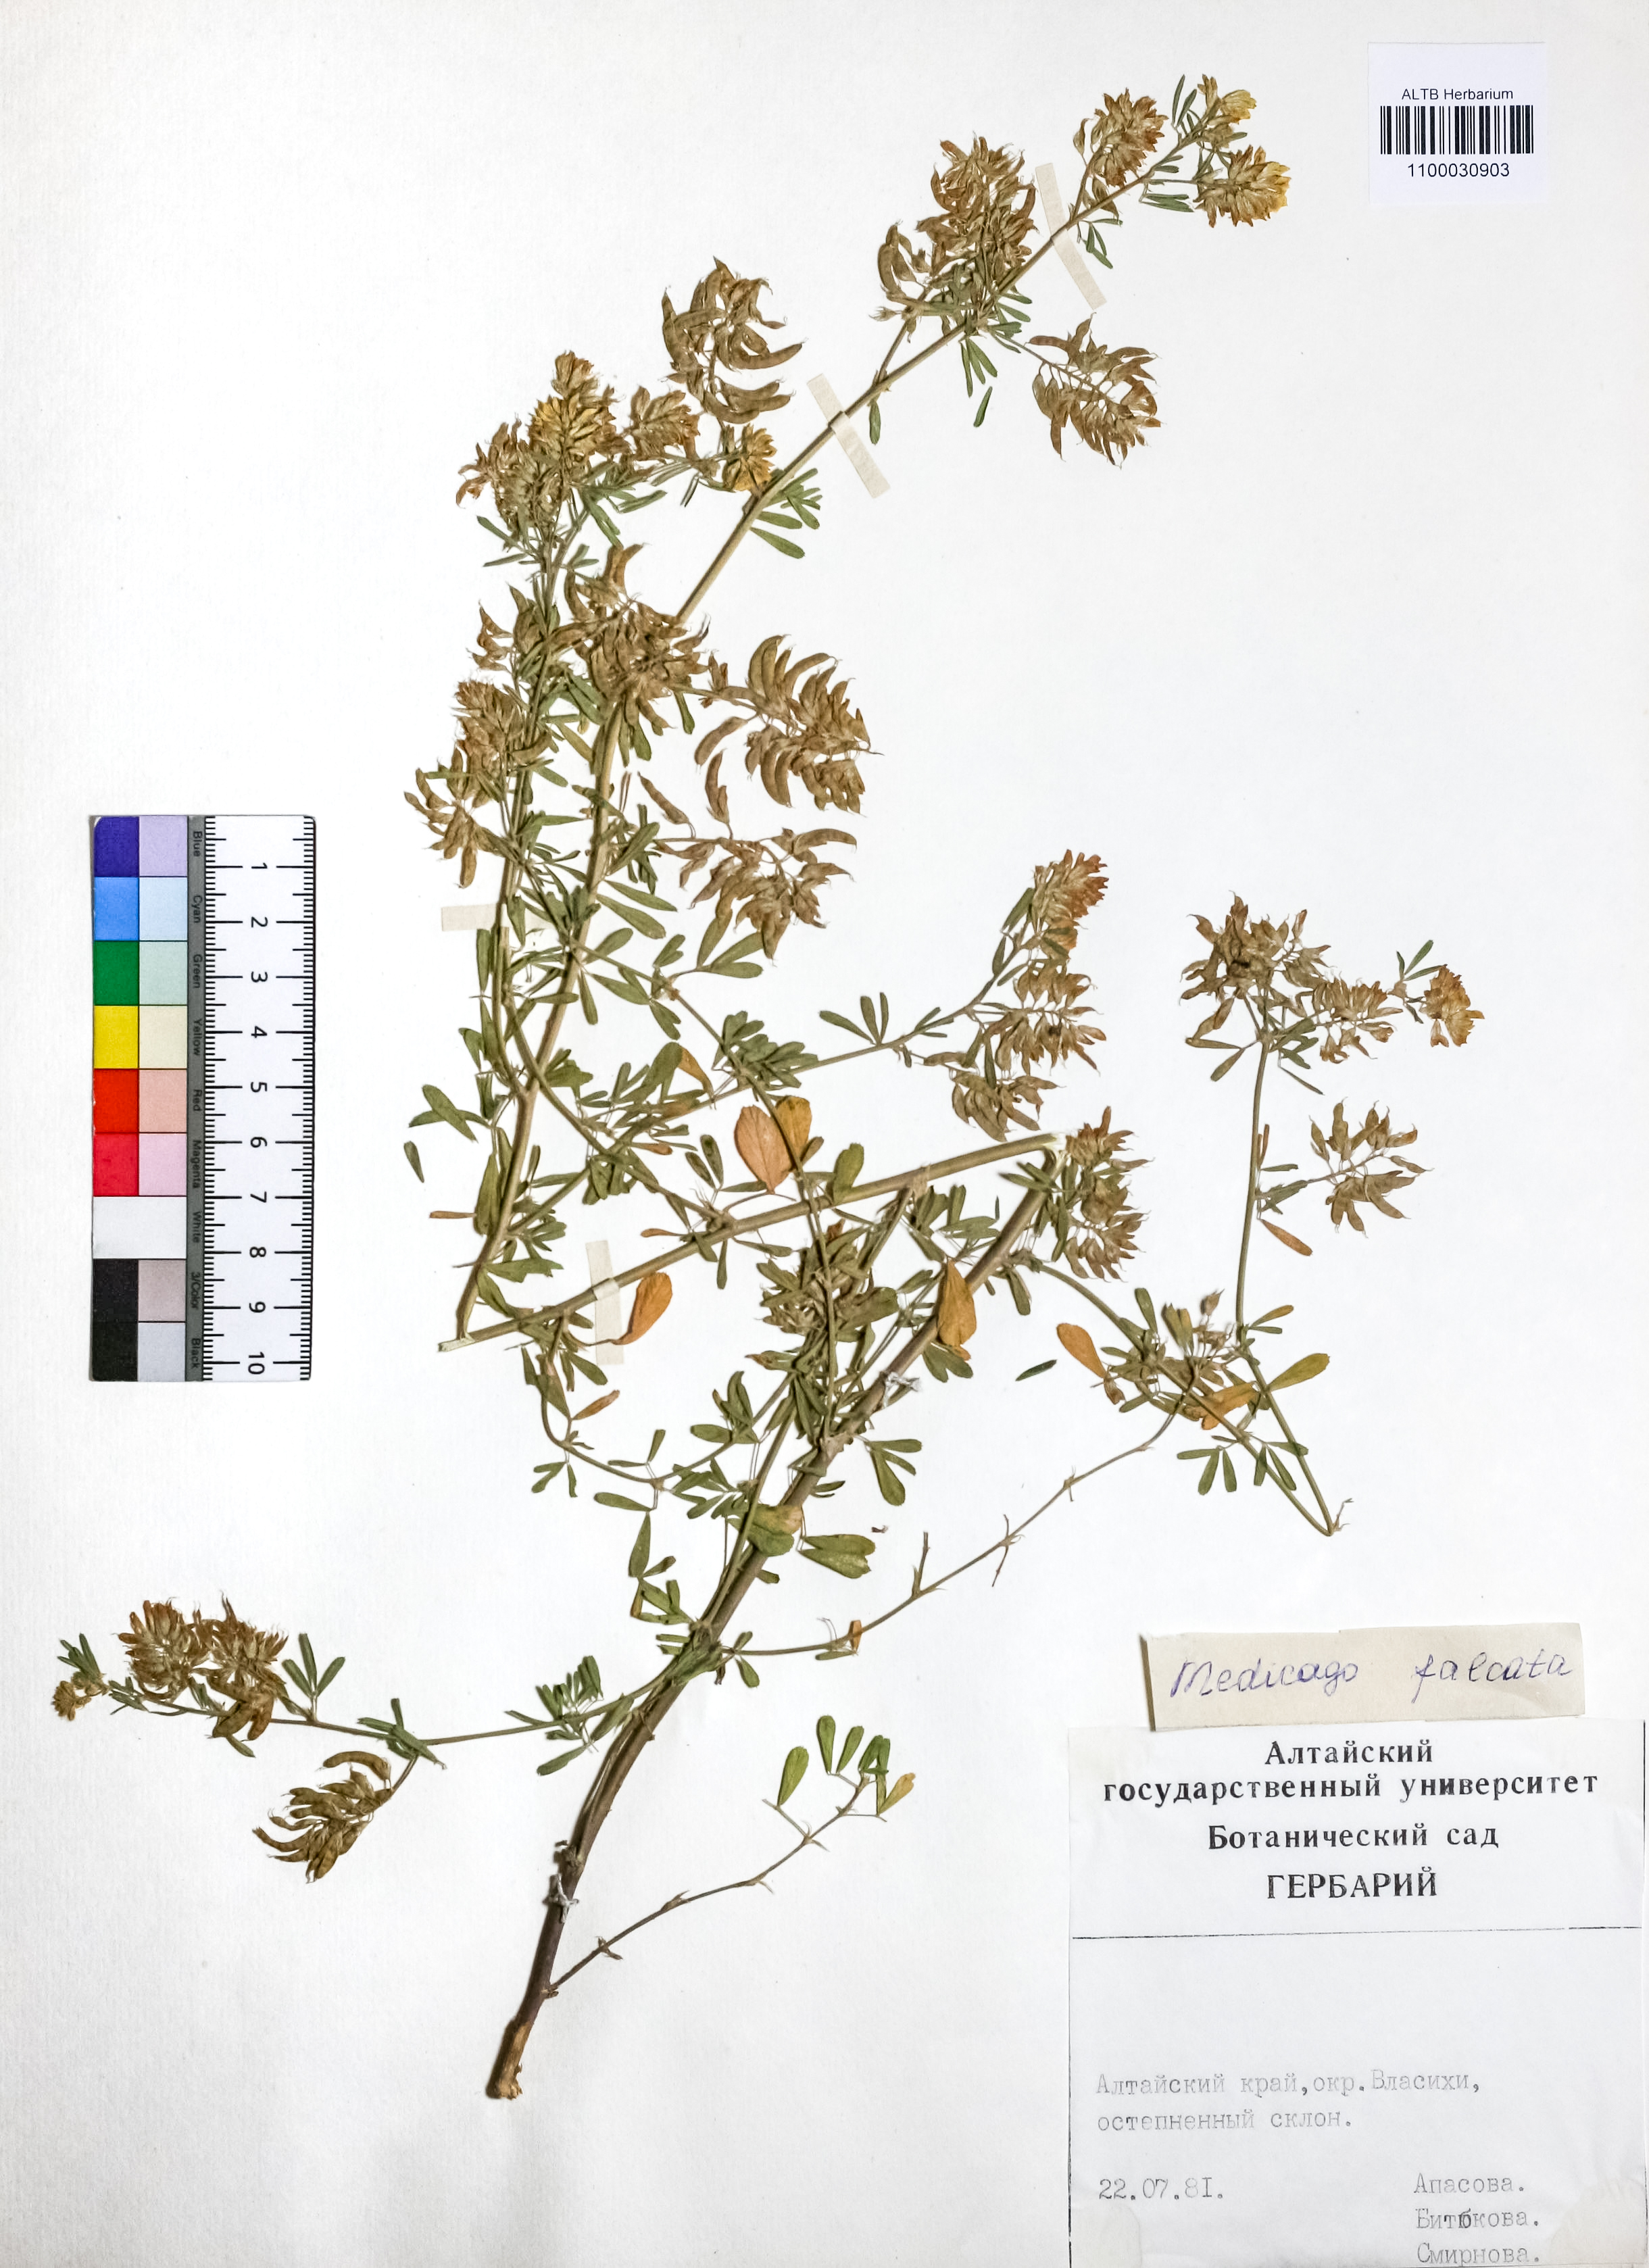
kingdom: Plantae
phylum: Tracheophyta
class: Magnoliopsida
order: Fabales
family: Fabaceae
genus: Medicago
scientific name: Medicago falcata
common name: Sickle medick
